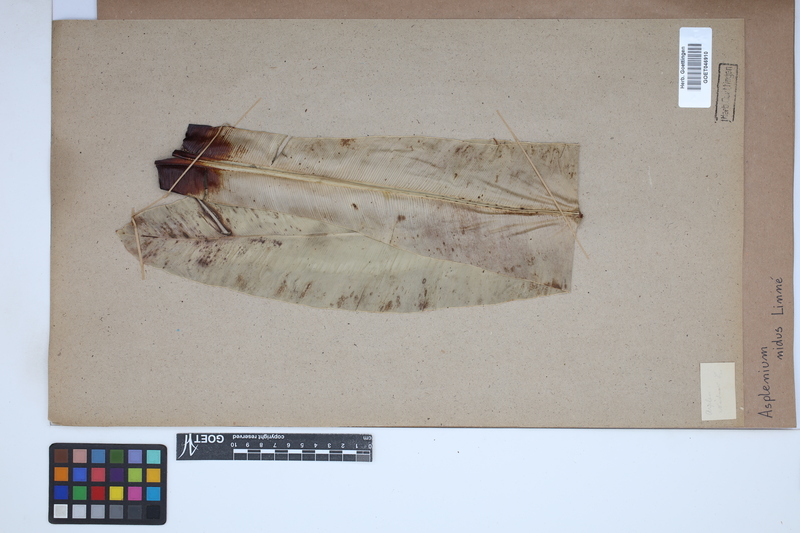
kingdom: Plantae
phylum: Tracheophyta
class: Polypodiopsida
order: Polypodiales
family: Aspleniaceae
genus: Asplenium
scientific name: Asplenium nidus
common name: Bird's-nest fern
